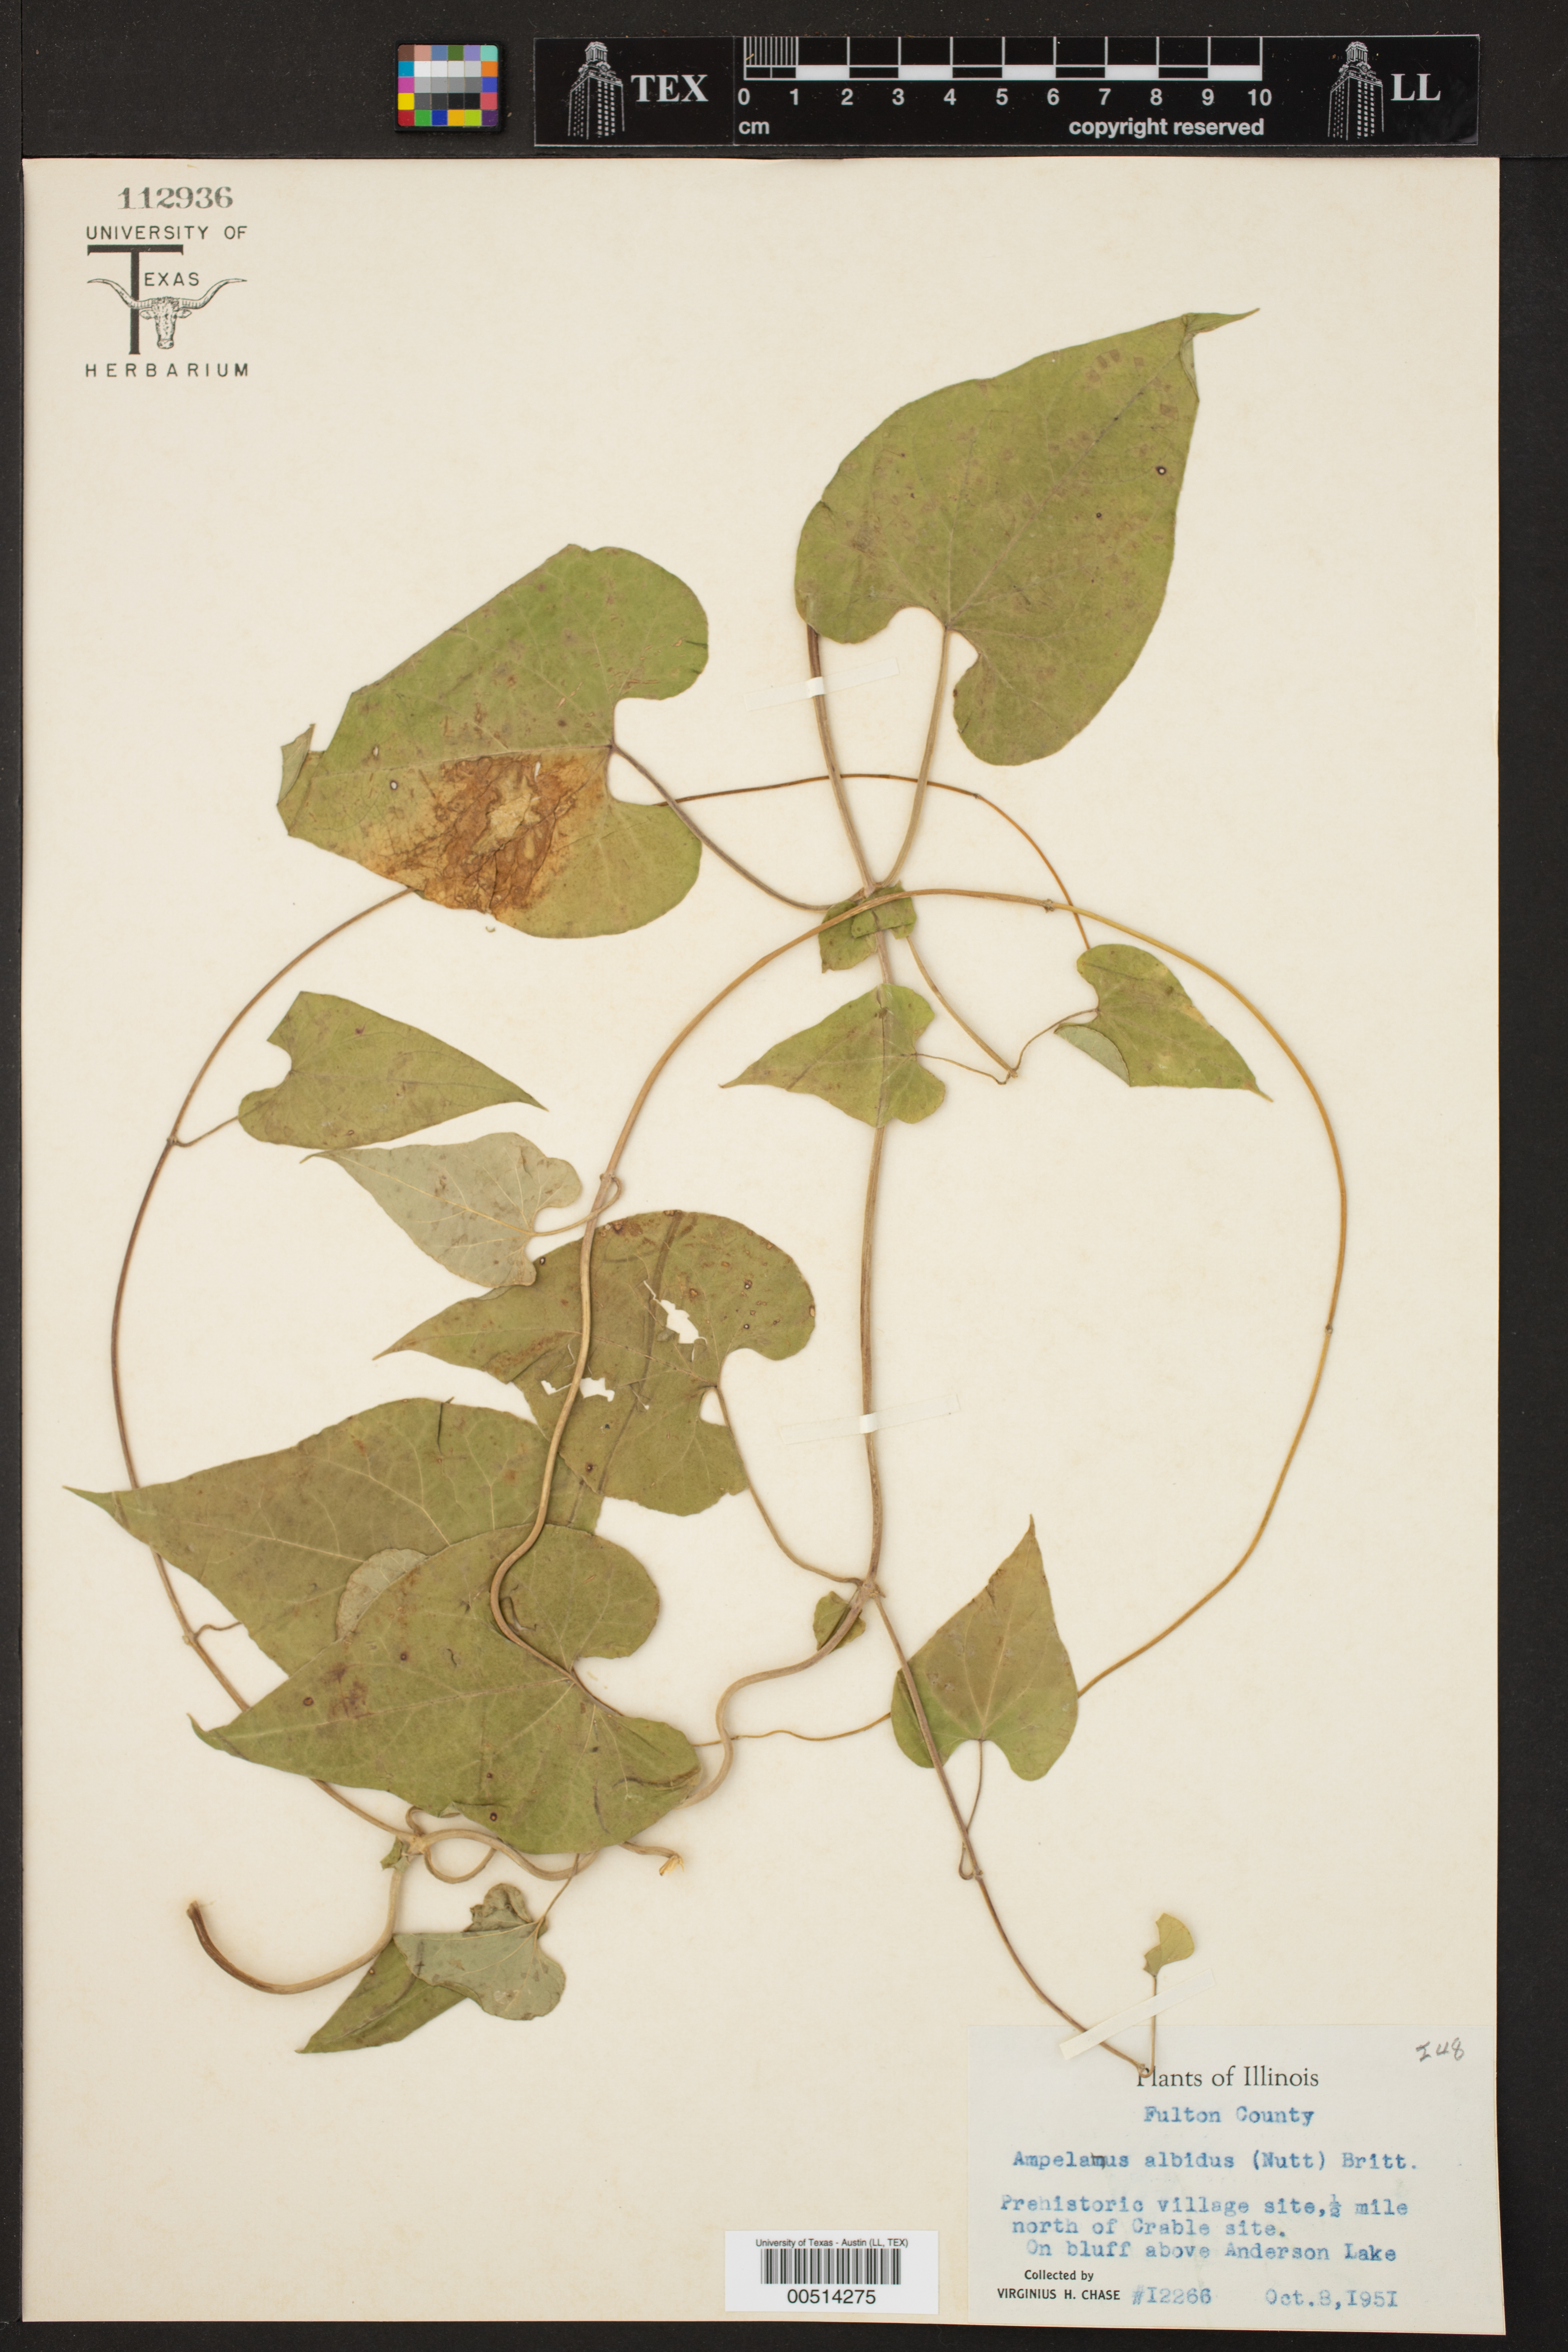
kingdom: Plantae
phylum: Tracheophyta
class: Magnoliopsida
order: Gentianales
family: Apocynaceae
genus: Cynanchum
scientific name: Cynanchum laeve
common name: Sandvine
